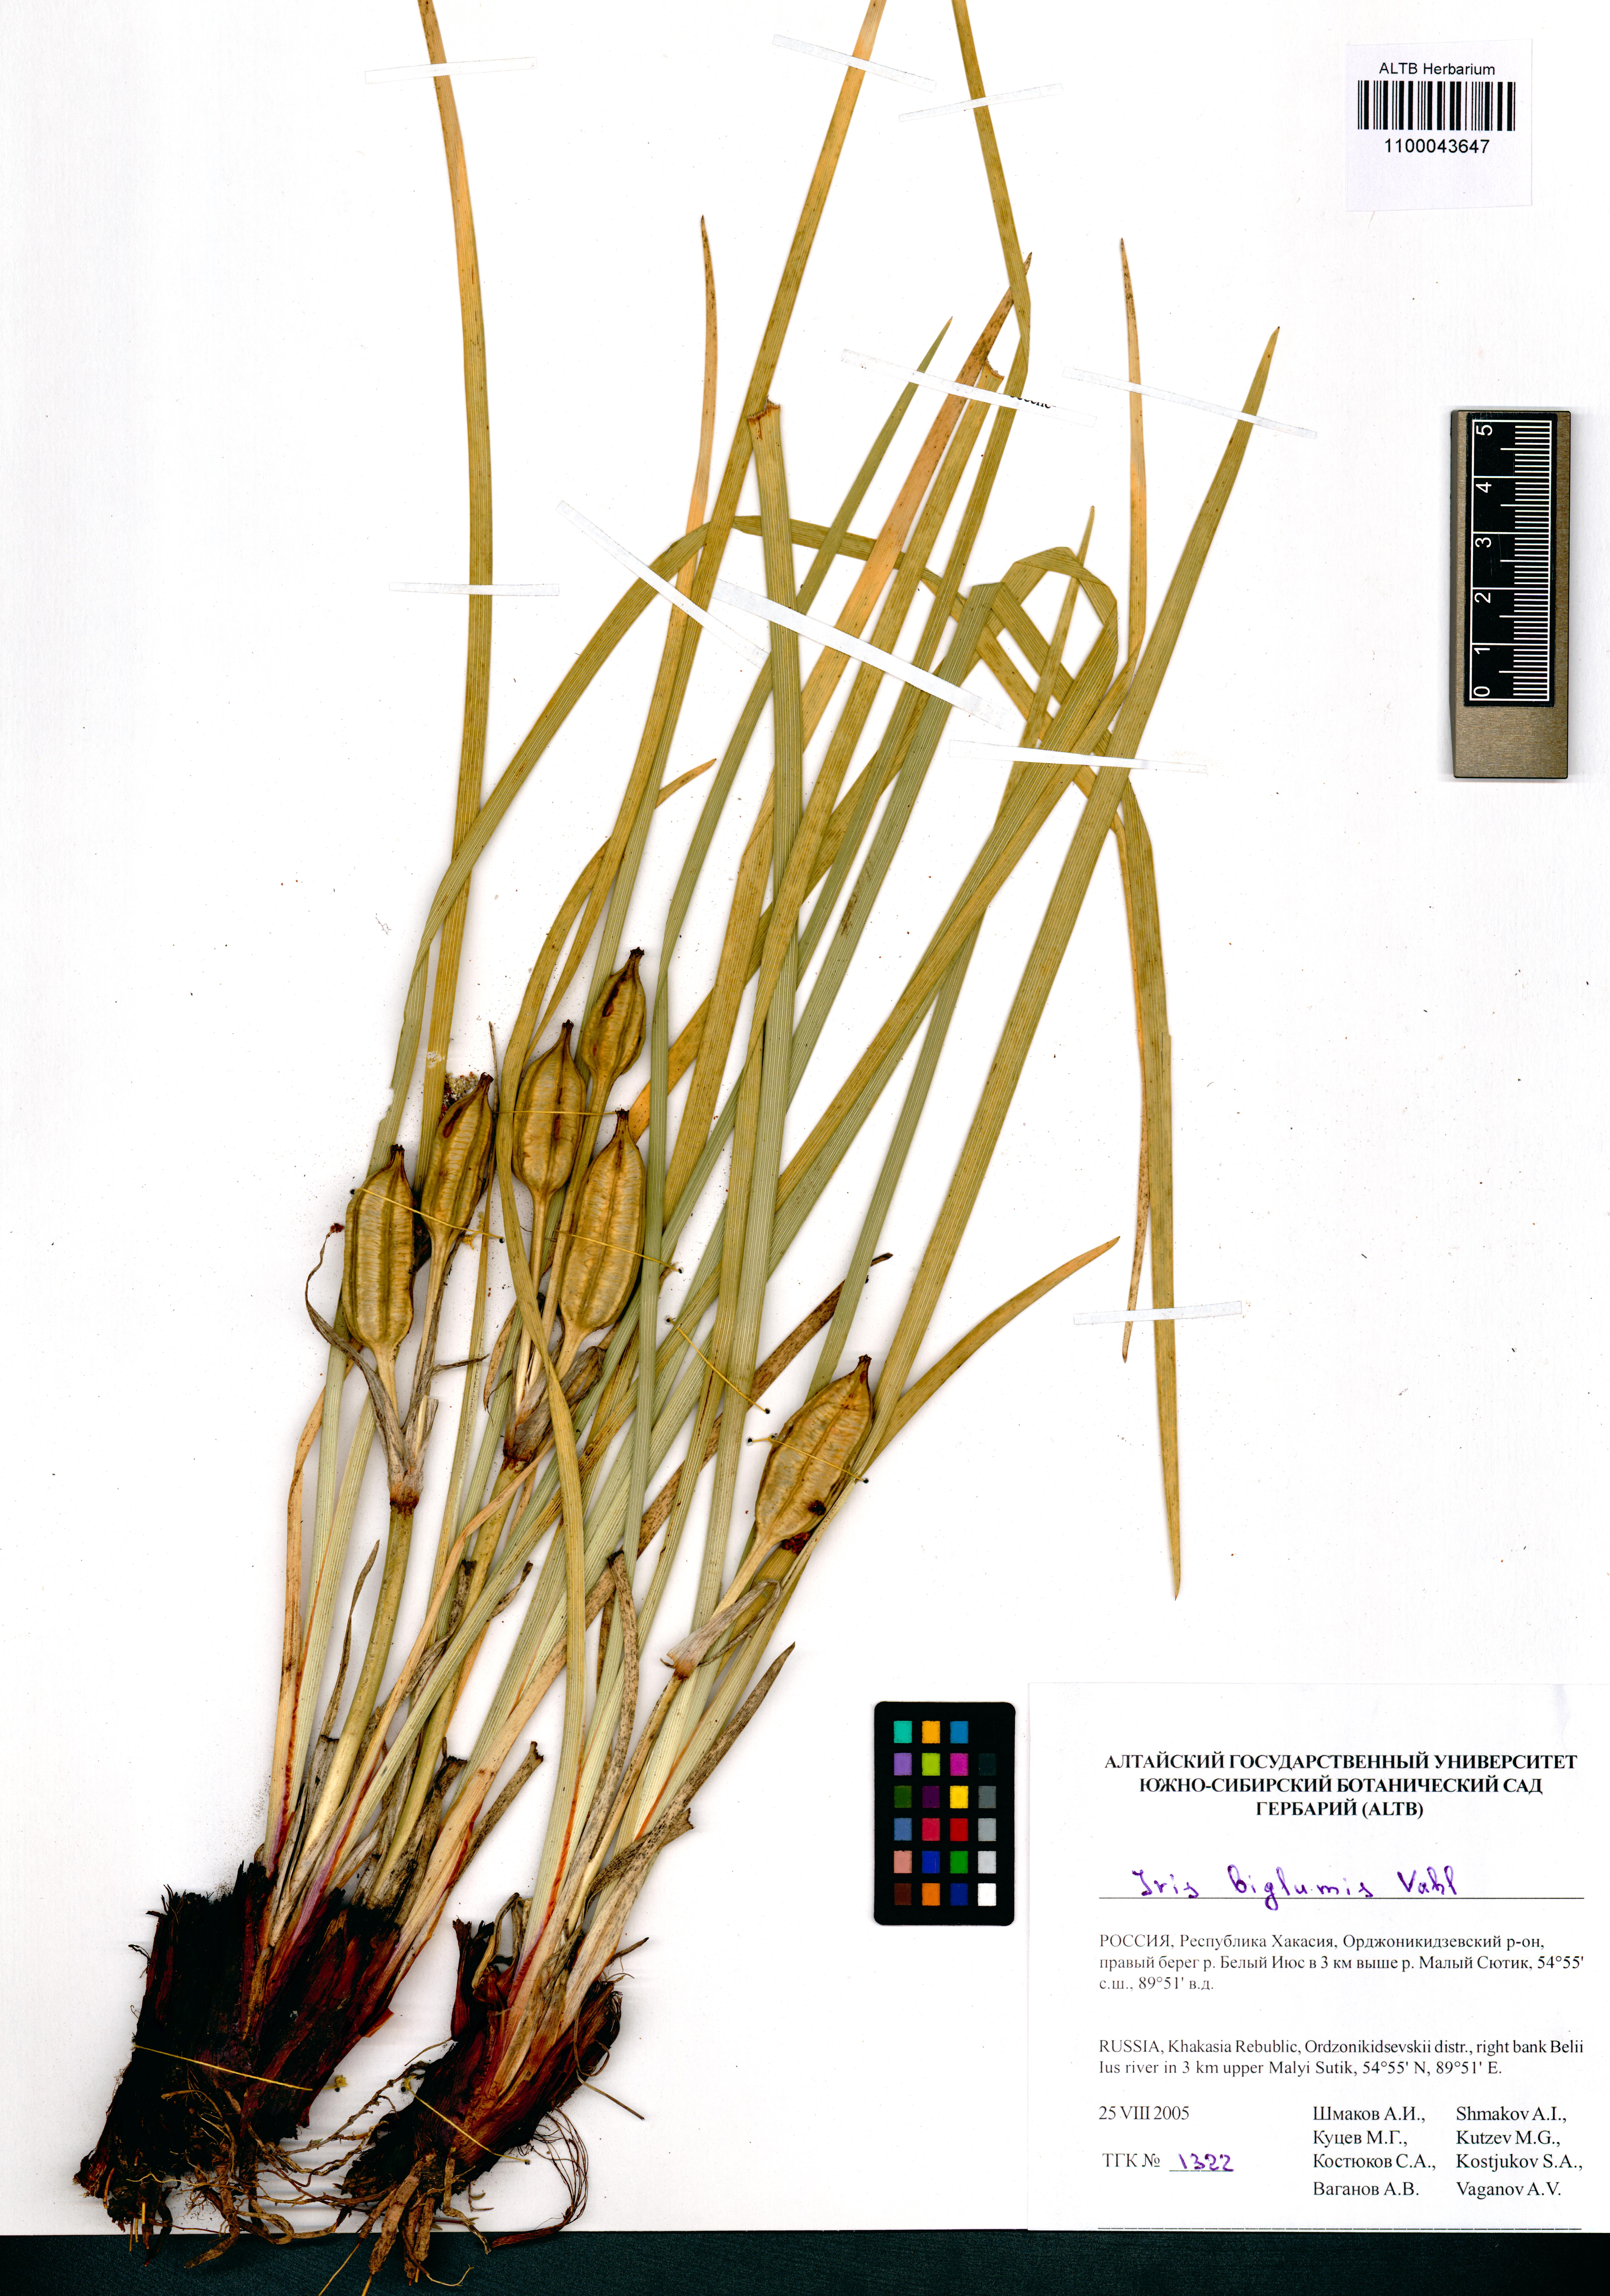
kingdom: Plantae
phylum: Tracheophyta
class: Liliopsida
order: Asparagales
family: Iridaceae
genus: Iris
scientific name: Iris lactea
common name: White-flower chinese iris
